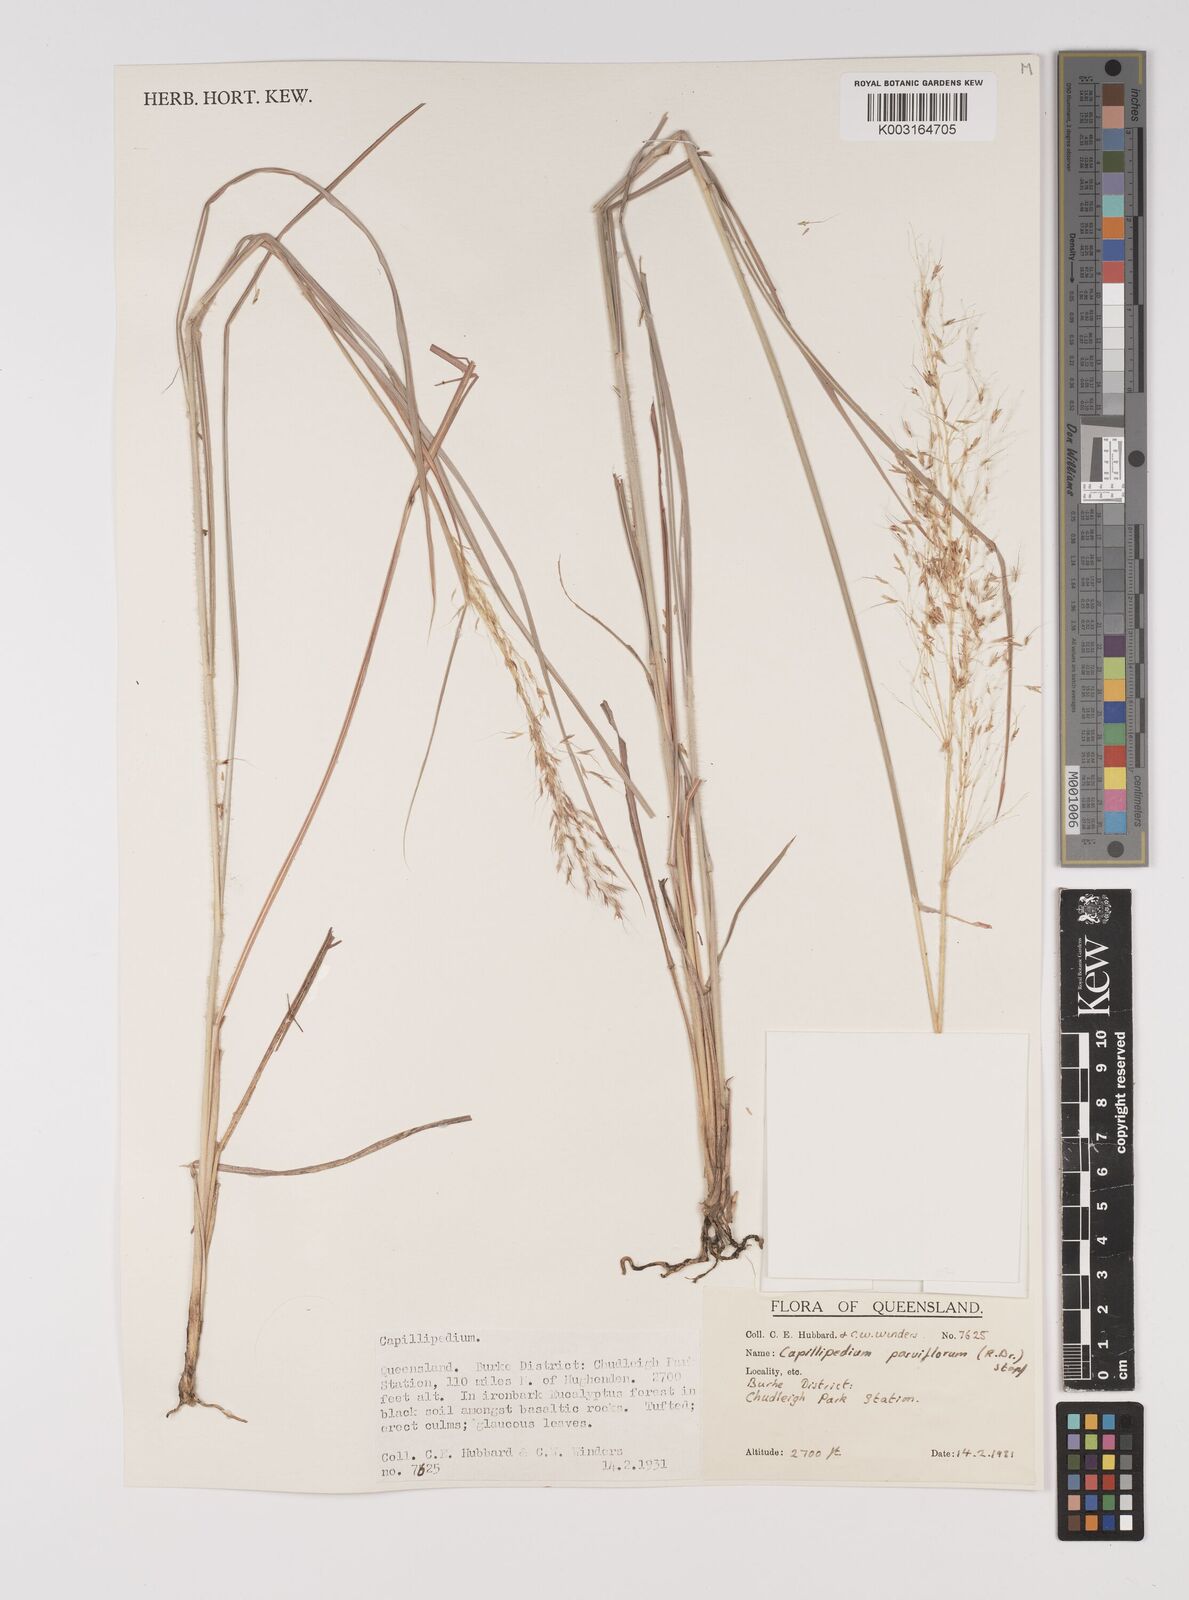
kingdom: Plantae
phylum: Tracheophyta
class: Liliopsida
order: Poales
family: Poaceae
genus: Capillipedium
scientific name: Capillipedium parviflorum
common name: Golden-beard
